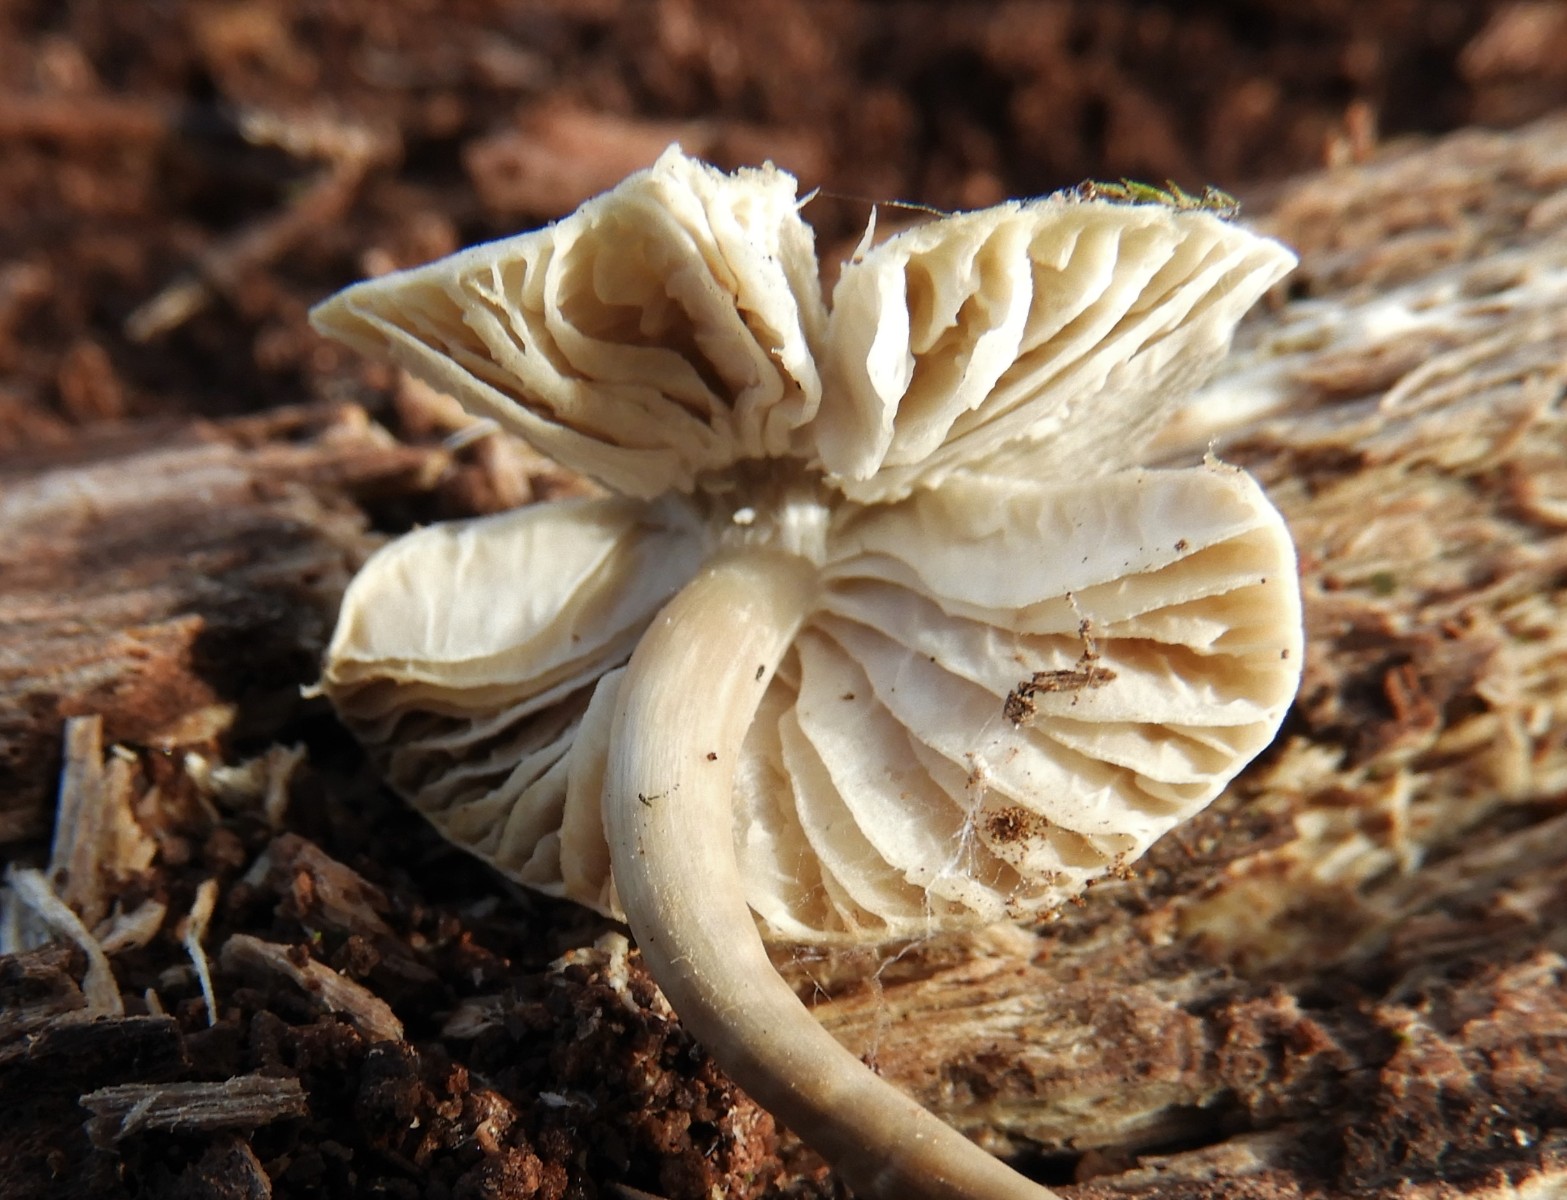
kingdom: Fungi
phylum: Basidiomycota
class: Agaricomycetes
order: Agaricales
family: Mycenaceae
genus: Mycena
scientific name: Mycena galericulata
